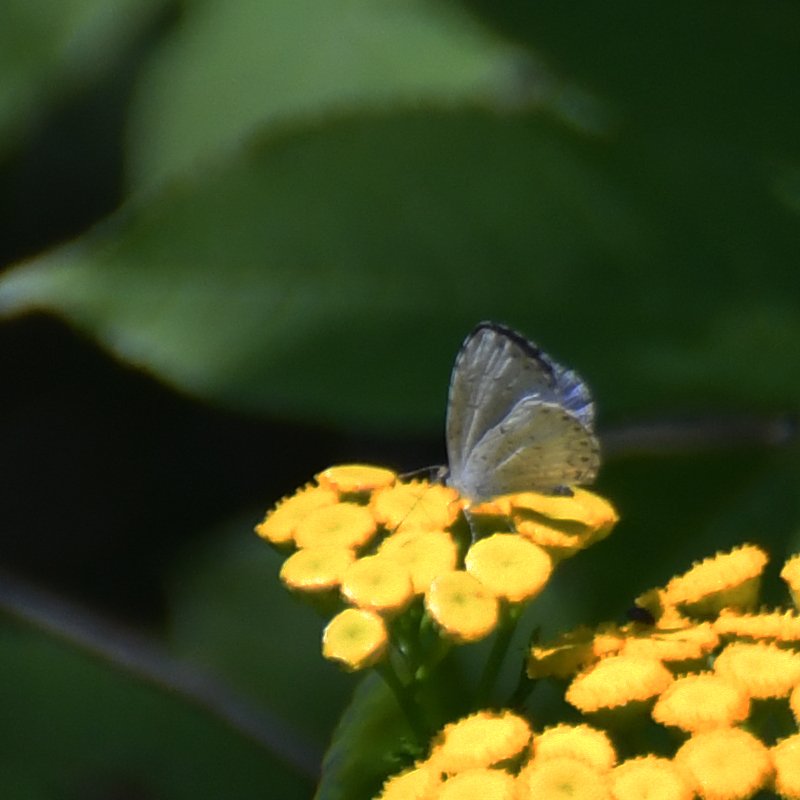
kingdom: Animalia
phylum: Arthropoda
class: Insecta
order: Lepidoptera
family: Lycaenidae
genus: Celastrina
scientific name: Celastrina lucia
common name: Northern Spring Azure
